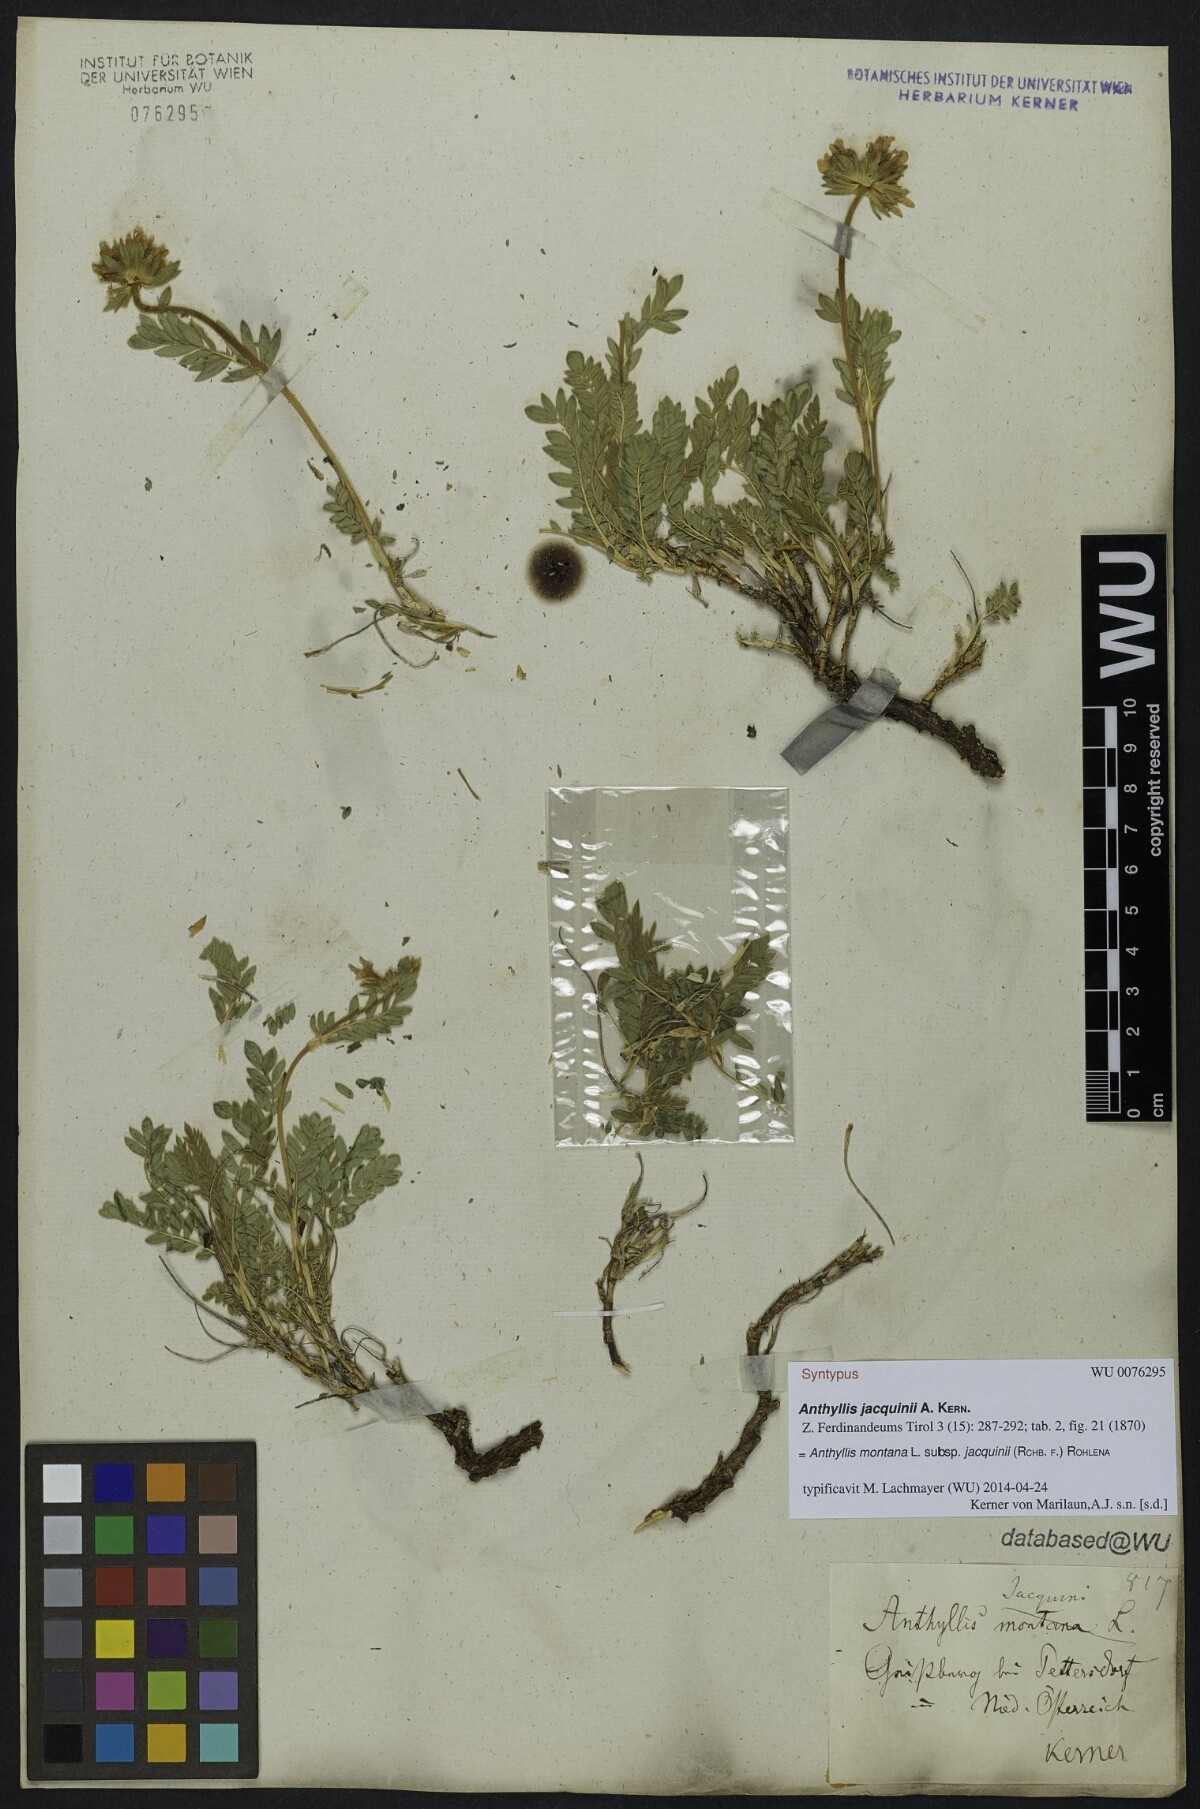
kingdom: Plantae
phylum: Tracheophyta
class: Magnoliopsida
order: Fabales
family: Fabaceae
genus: Anthyllis
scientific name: Anthyllis montana
